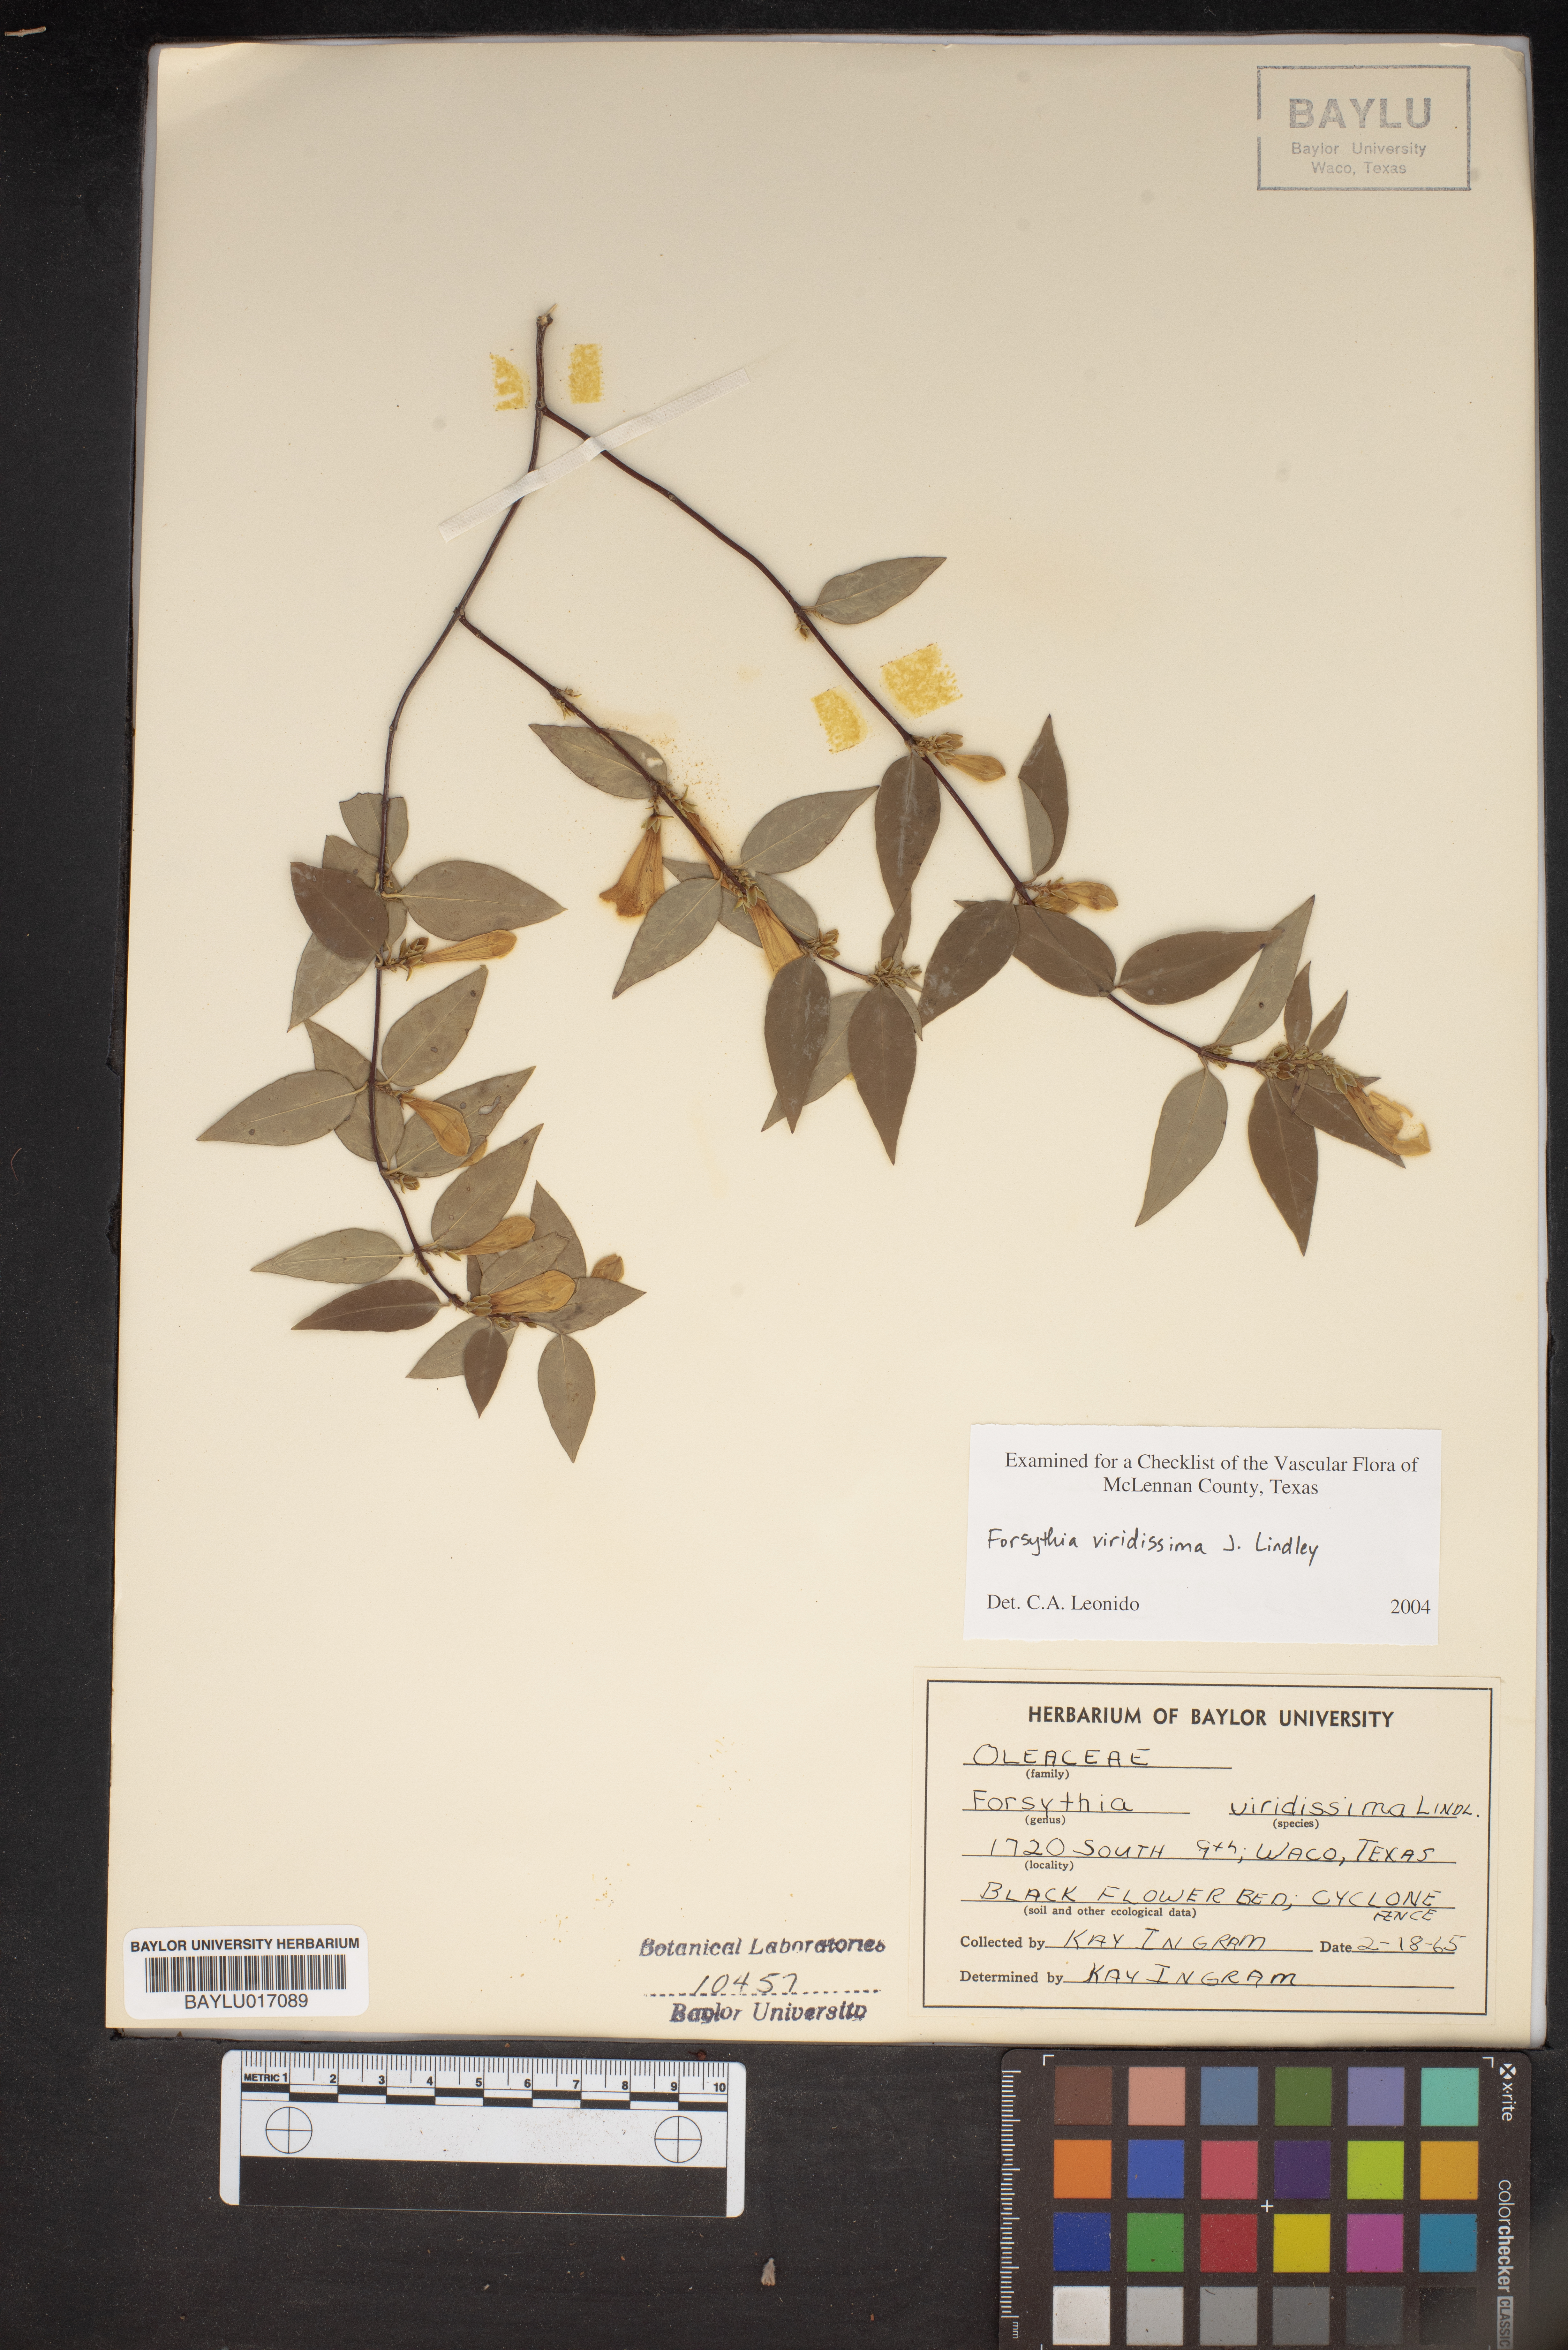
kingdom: Plantae
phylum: Tracheophyta
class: Magnoliopsida
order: Lamiales
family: Oleaceae
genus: Forsythia
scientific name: Forsythia viridissima
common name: Greenstem forsythia
